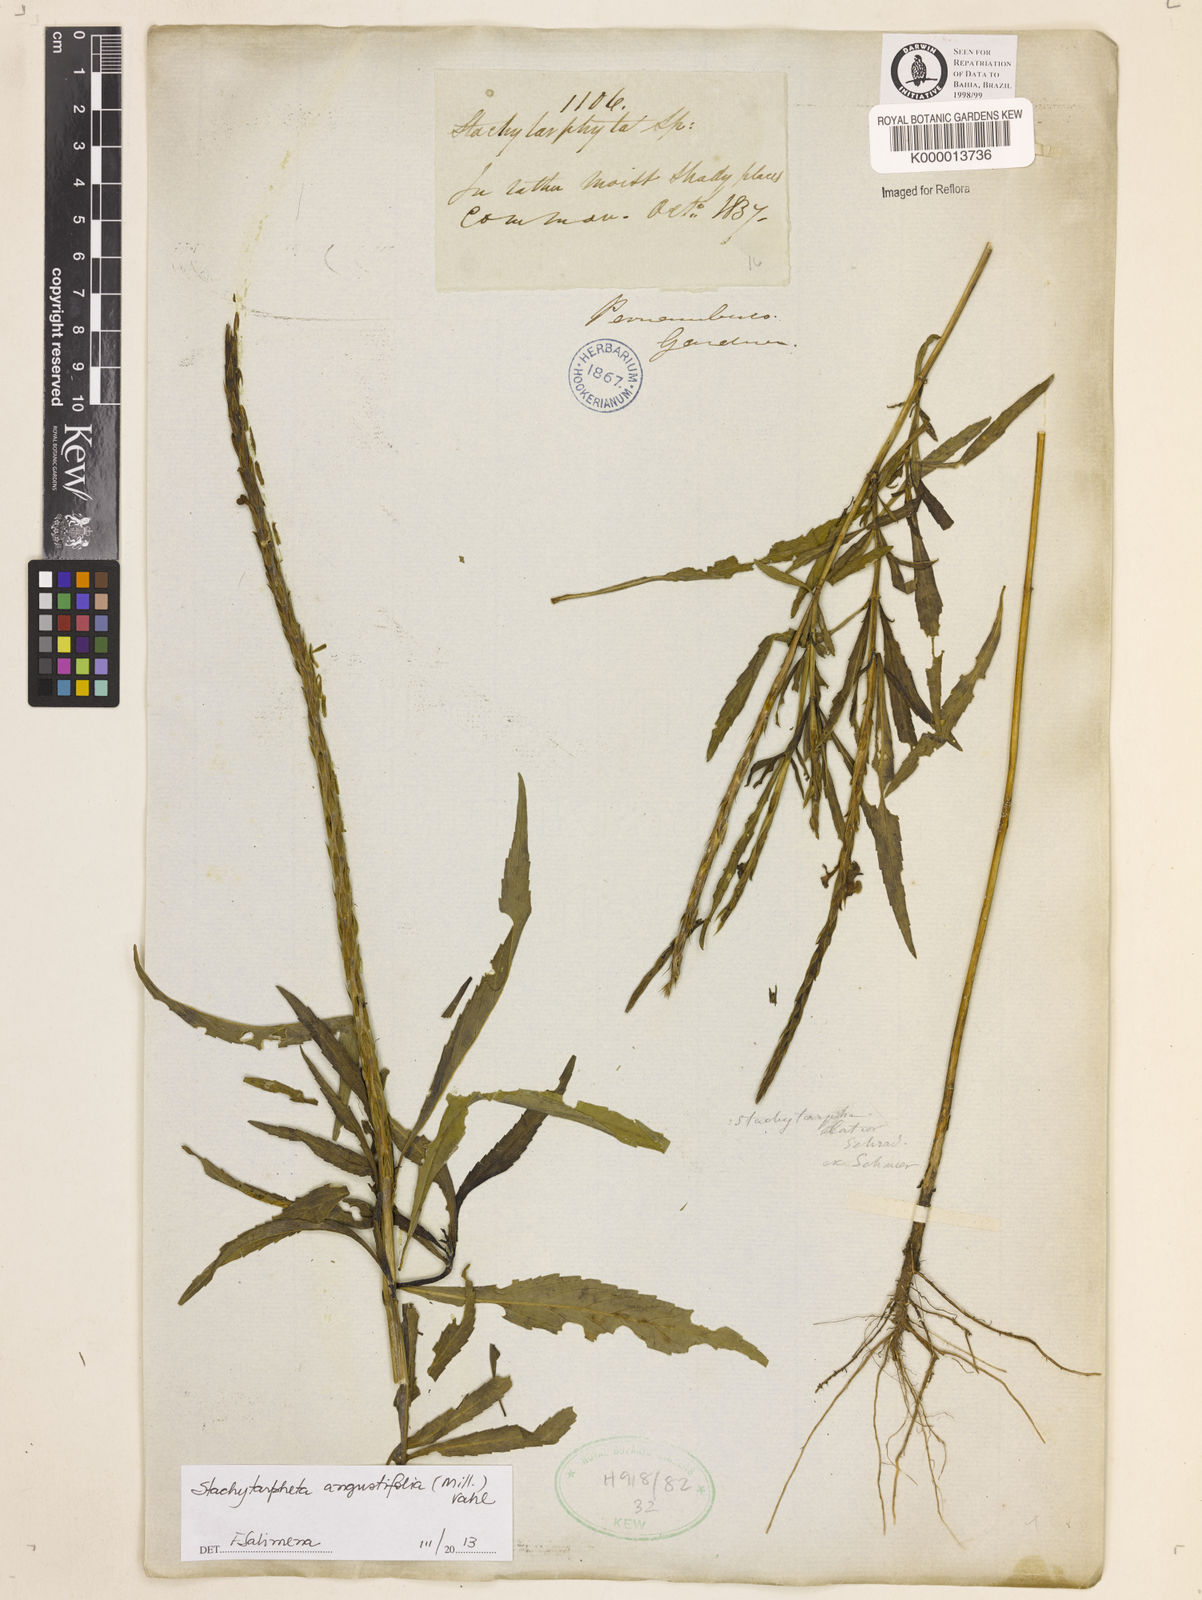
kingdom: Plantae
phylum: Tracheophyta
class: Magnoliopsida
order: Lamiales
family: Verbenaceae
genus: Stachytarpheta
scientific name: Stachytarpheta indica
